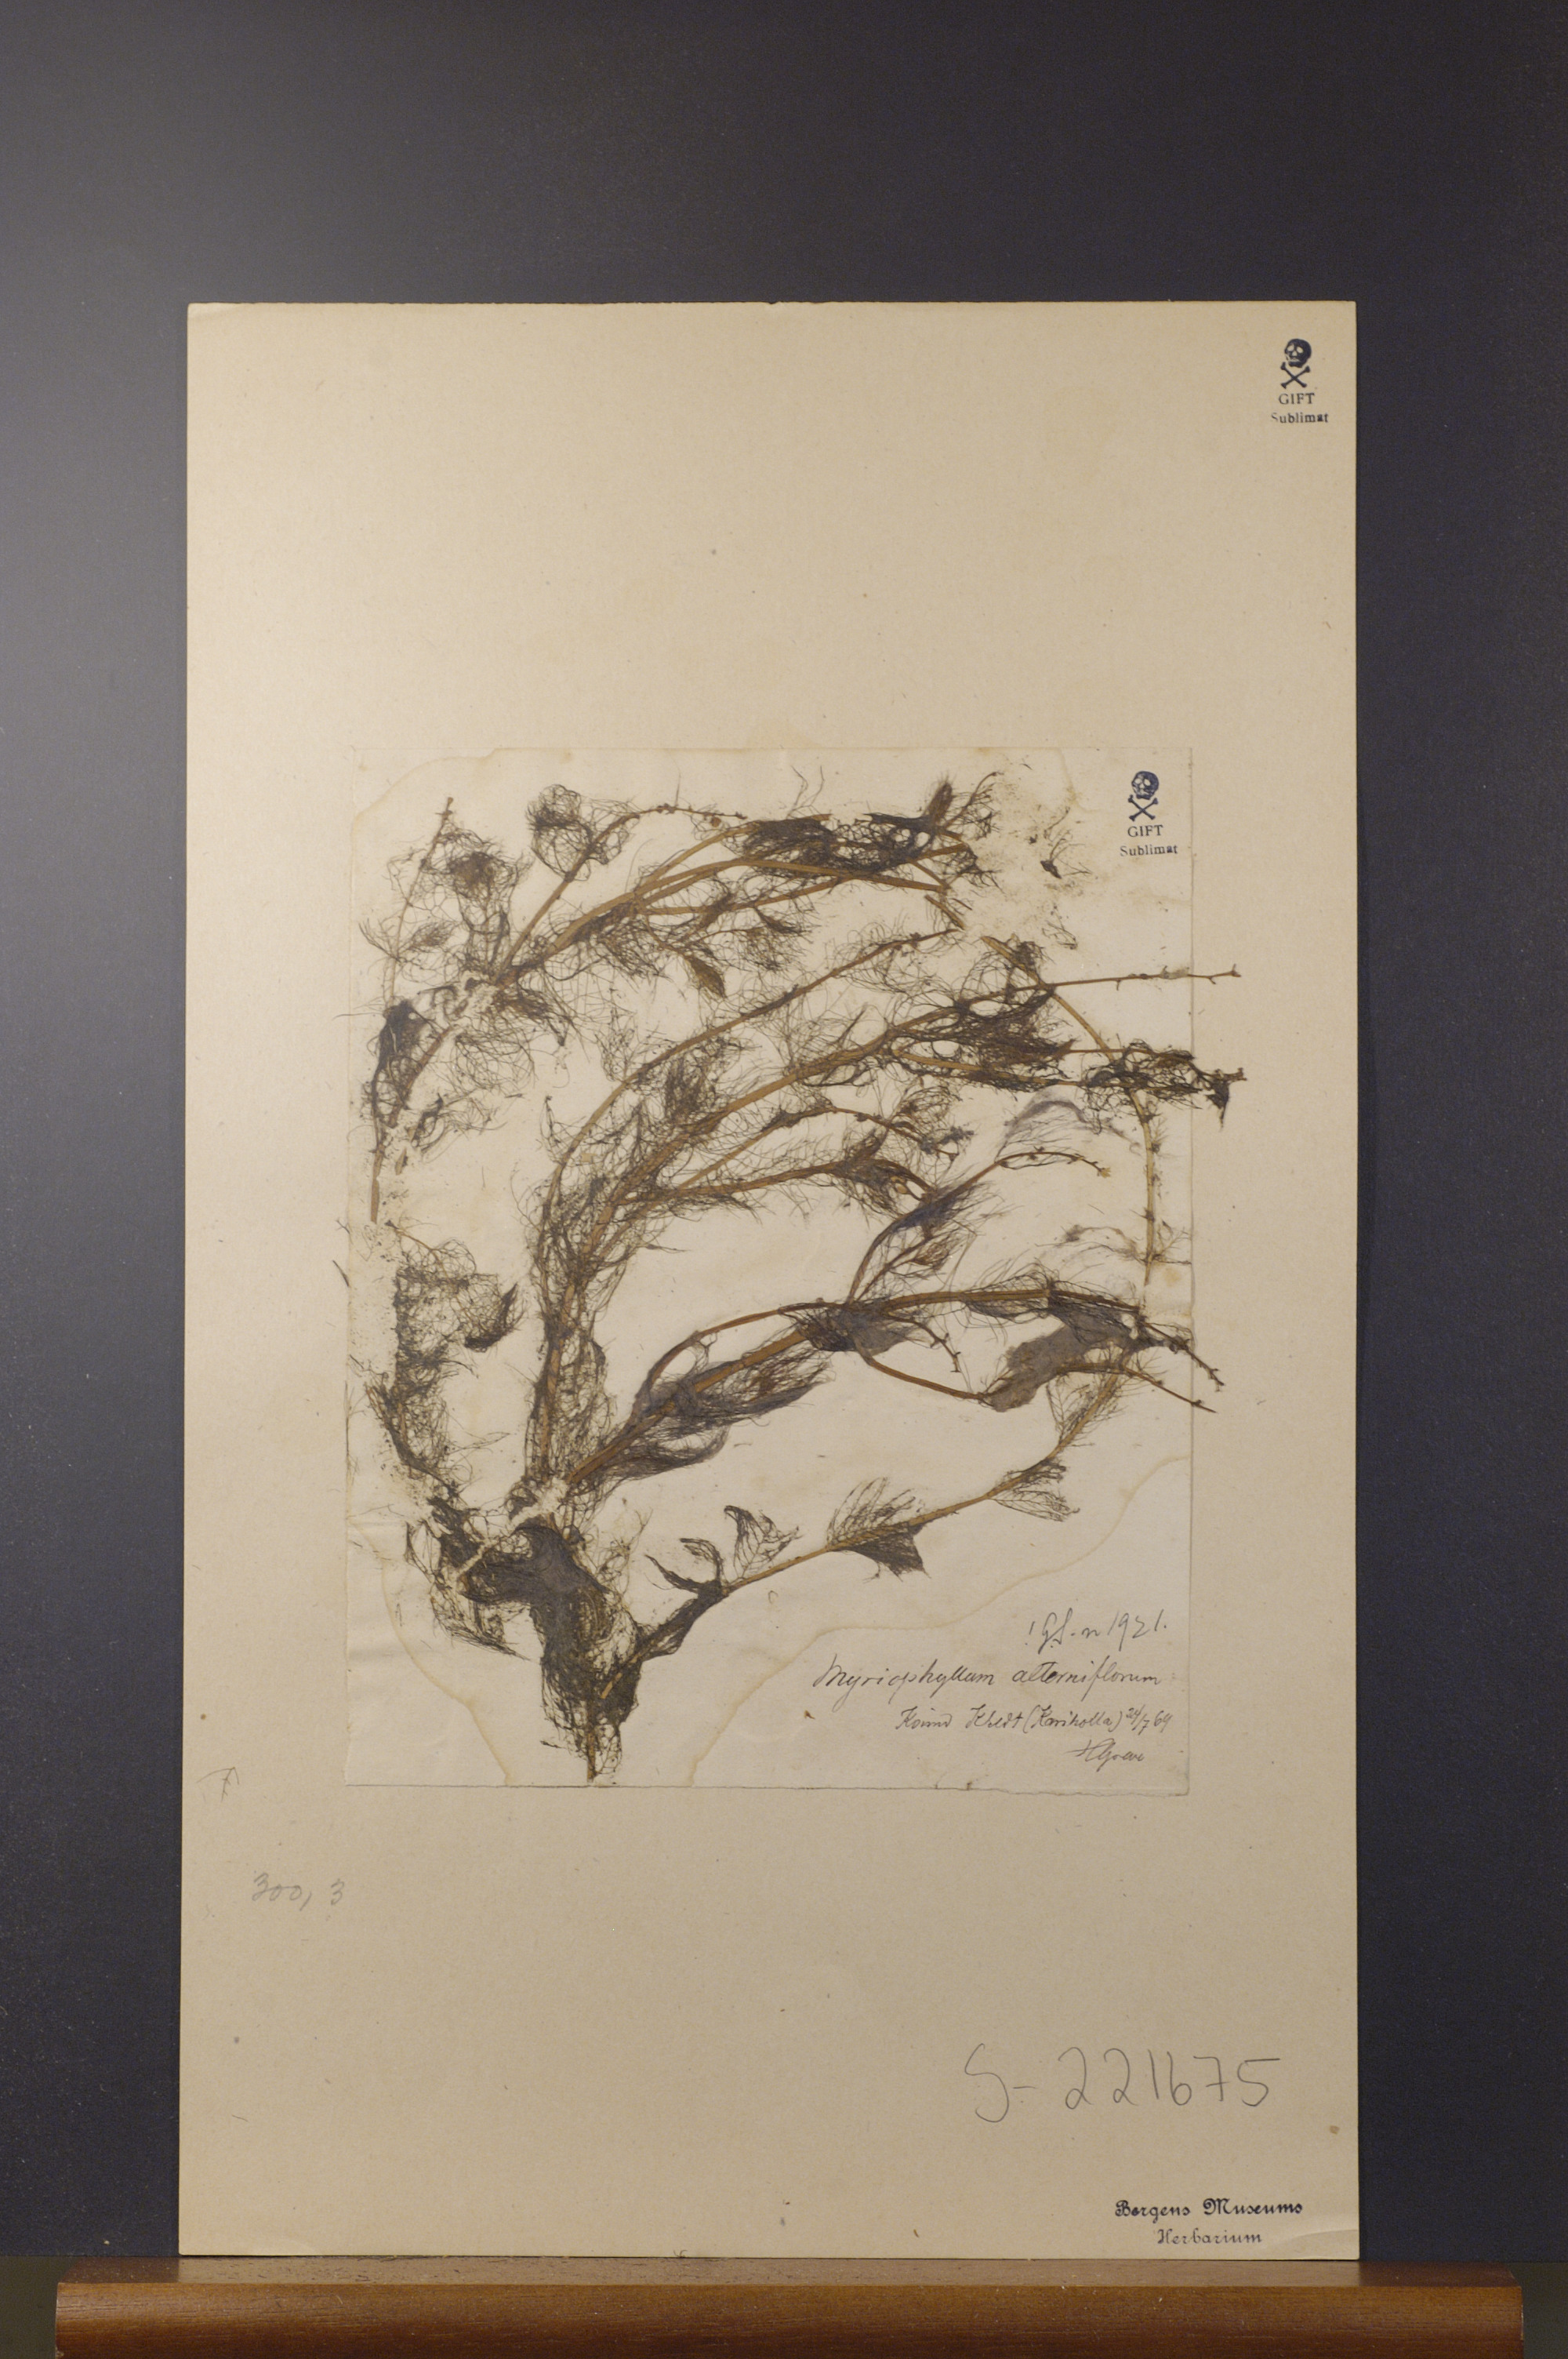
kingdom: Plantae
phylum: Tracheophyta
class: Magnoliopsida
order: Saxifragales
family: Haloragaceae
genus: Myriophyllum
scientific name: Myriophyllum alterniflorum
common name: Alternate water-milfoil
